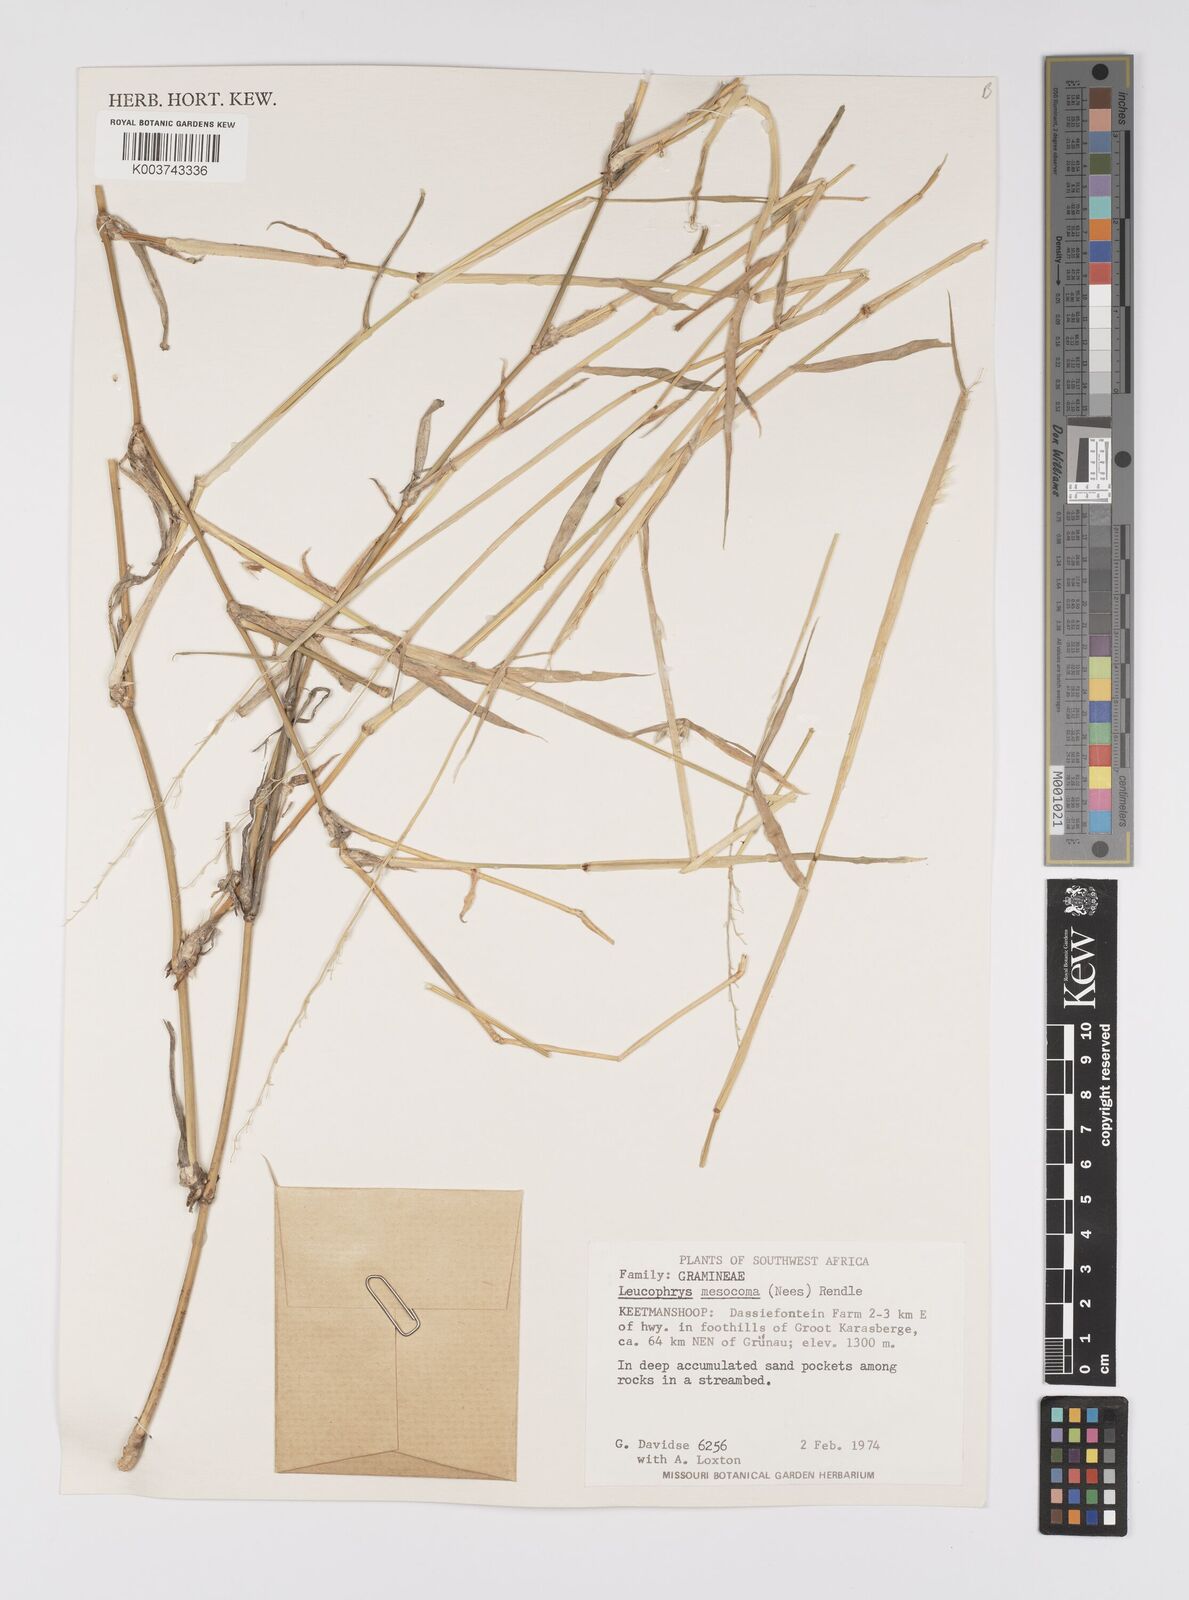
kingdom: Plantae
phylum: Tracheophyta
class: Liliopsida
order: Poales
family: Poaceae
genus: Urochloa
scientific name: Urochloa Brachiaria mesocoma
